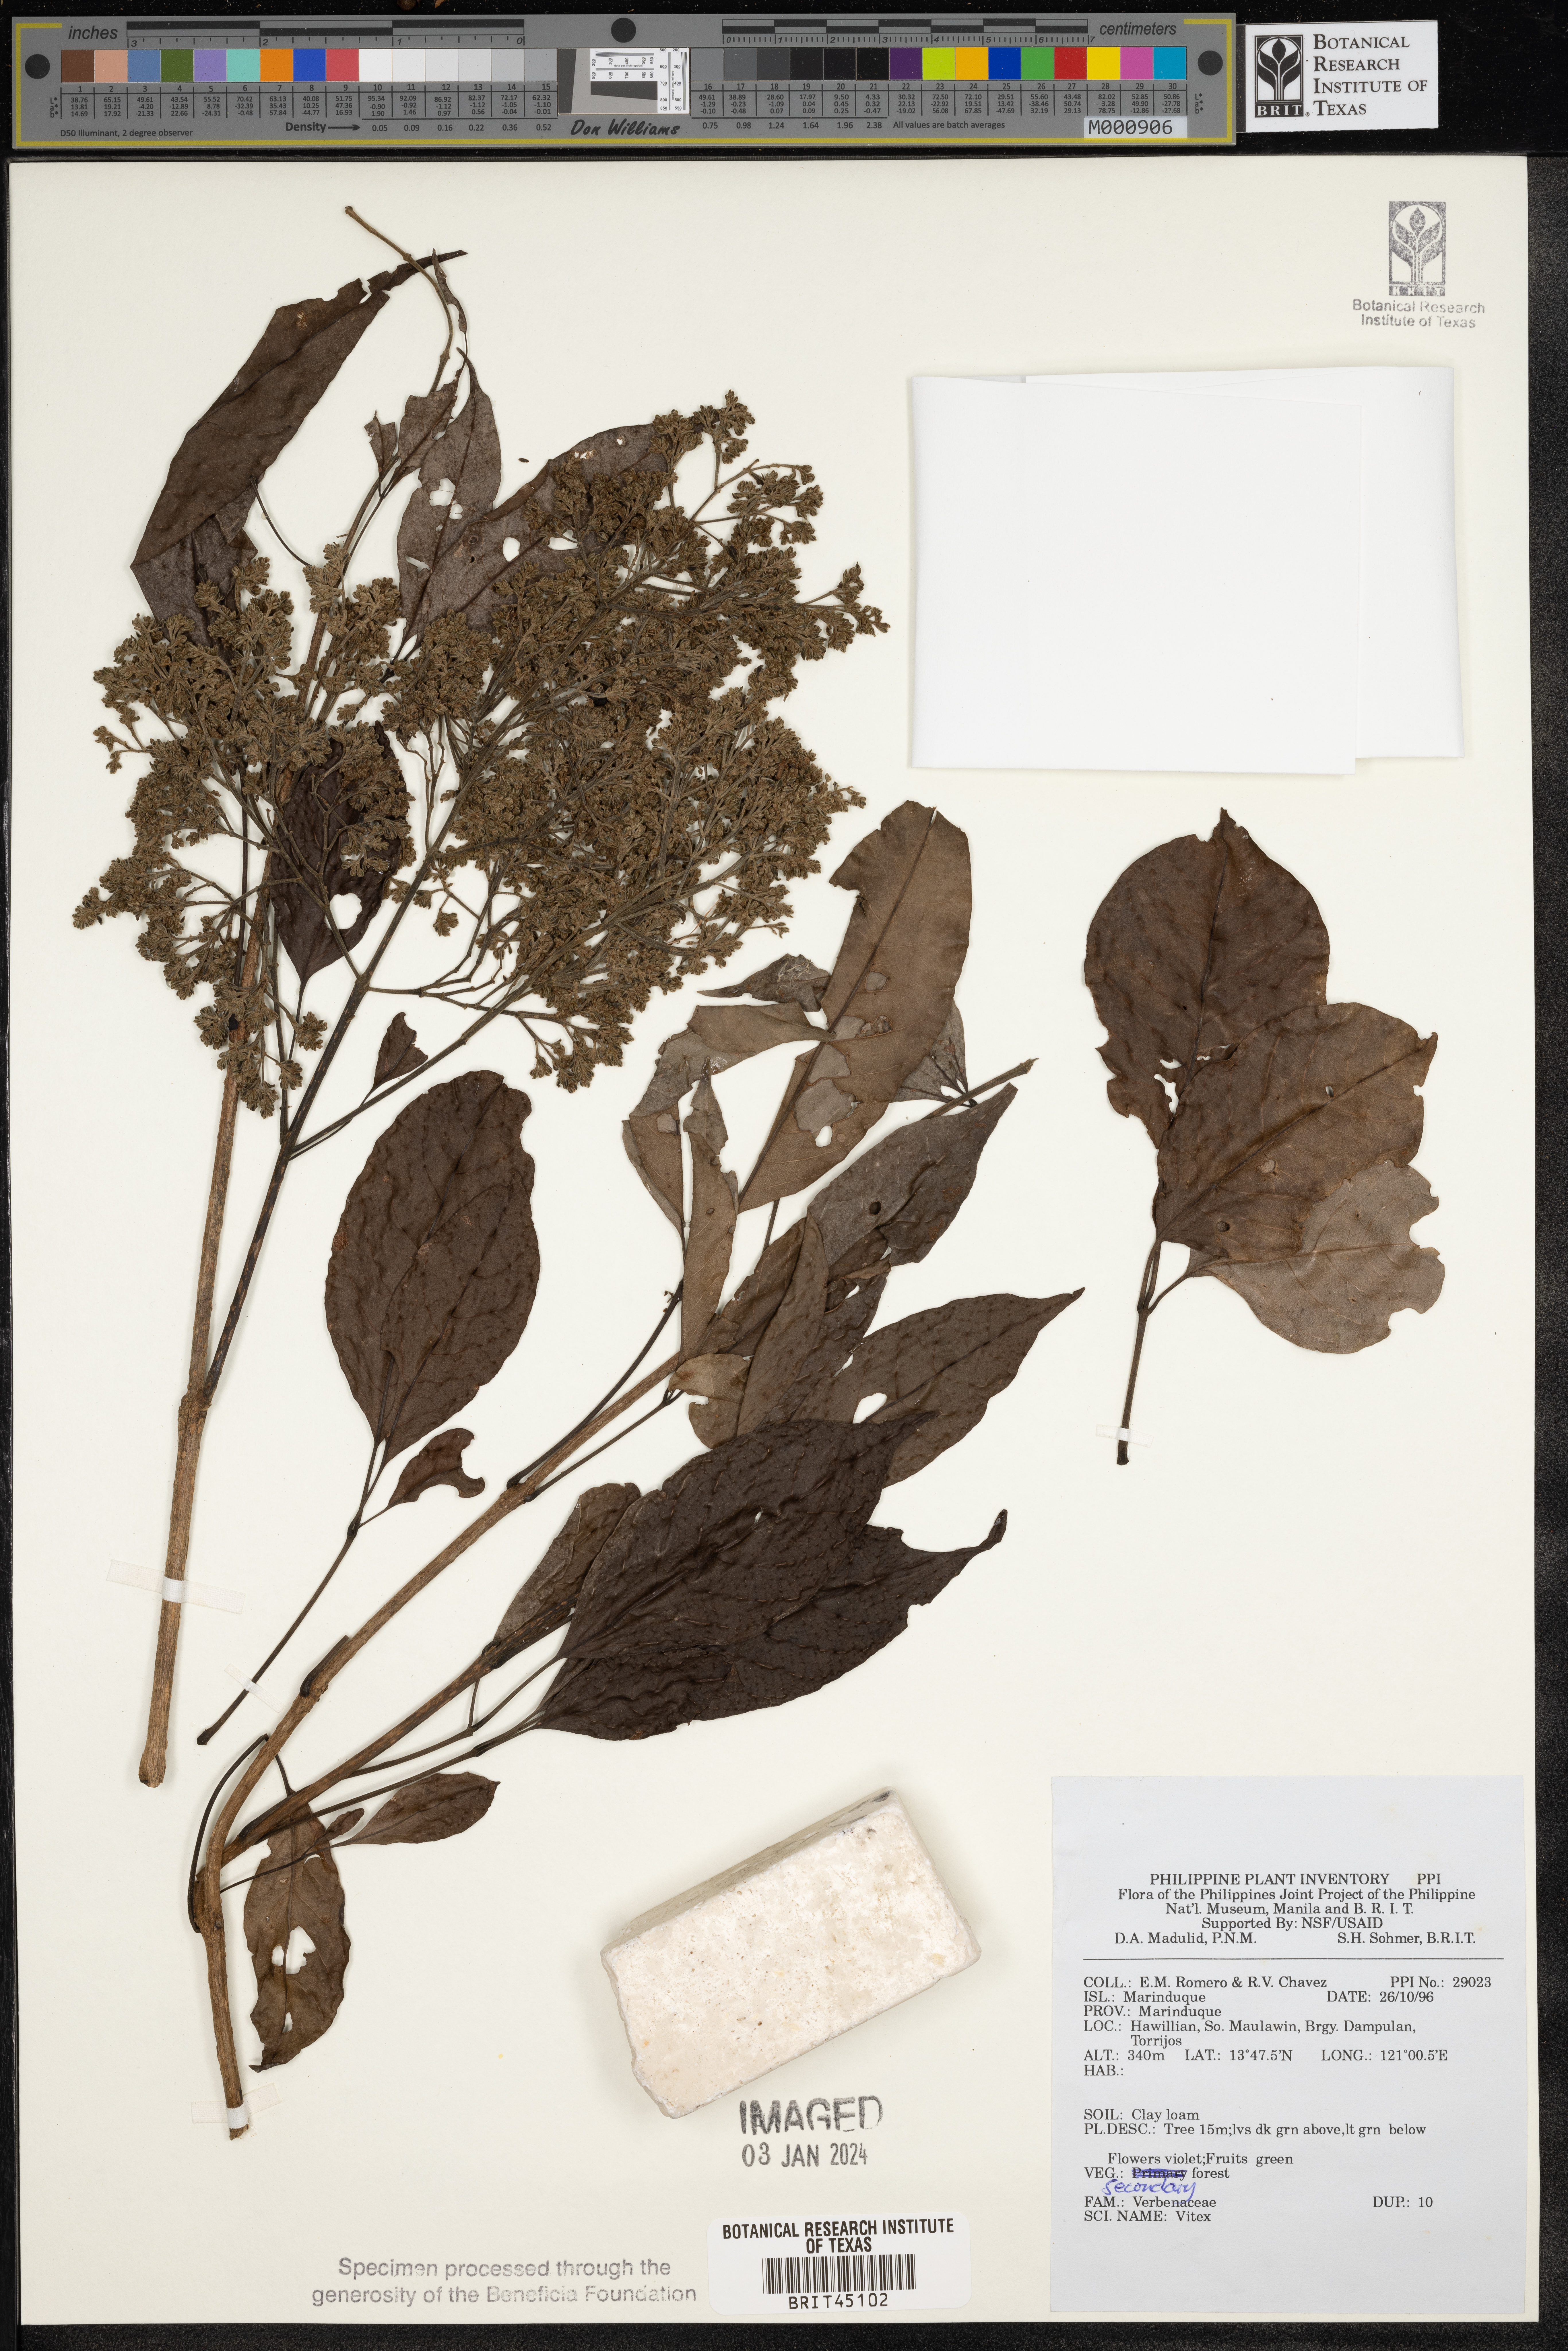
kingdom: Plantae
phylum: Tracheophyta
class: Magnoliopsida
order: Lamiales
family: Lamiaceae
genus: Vitex
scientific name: Vitex
